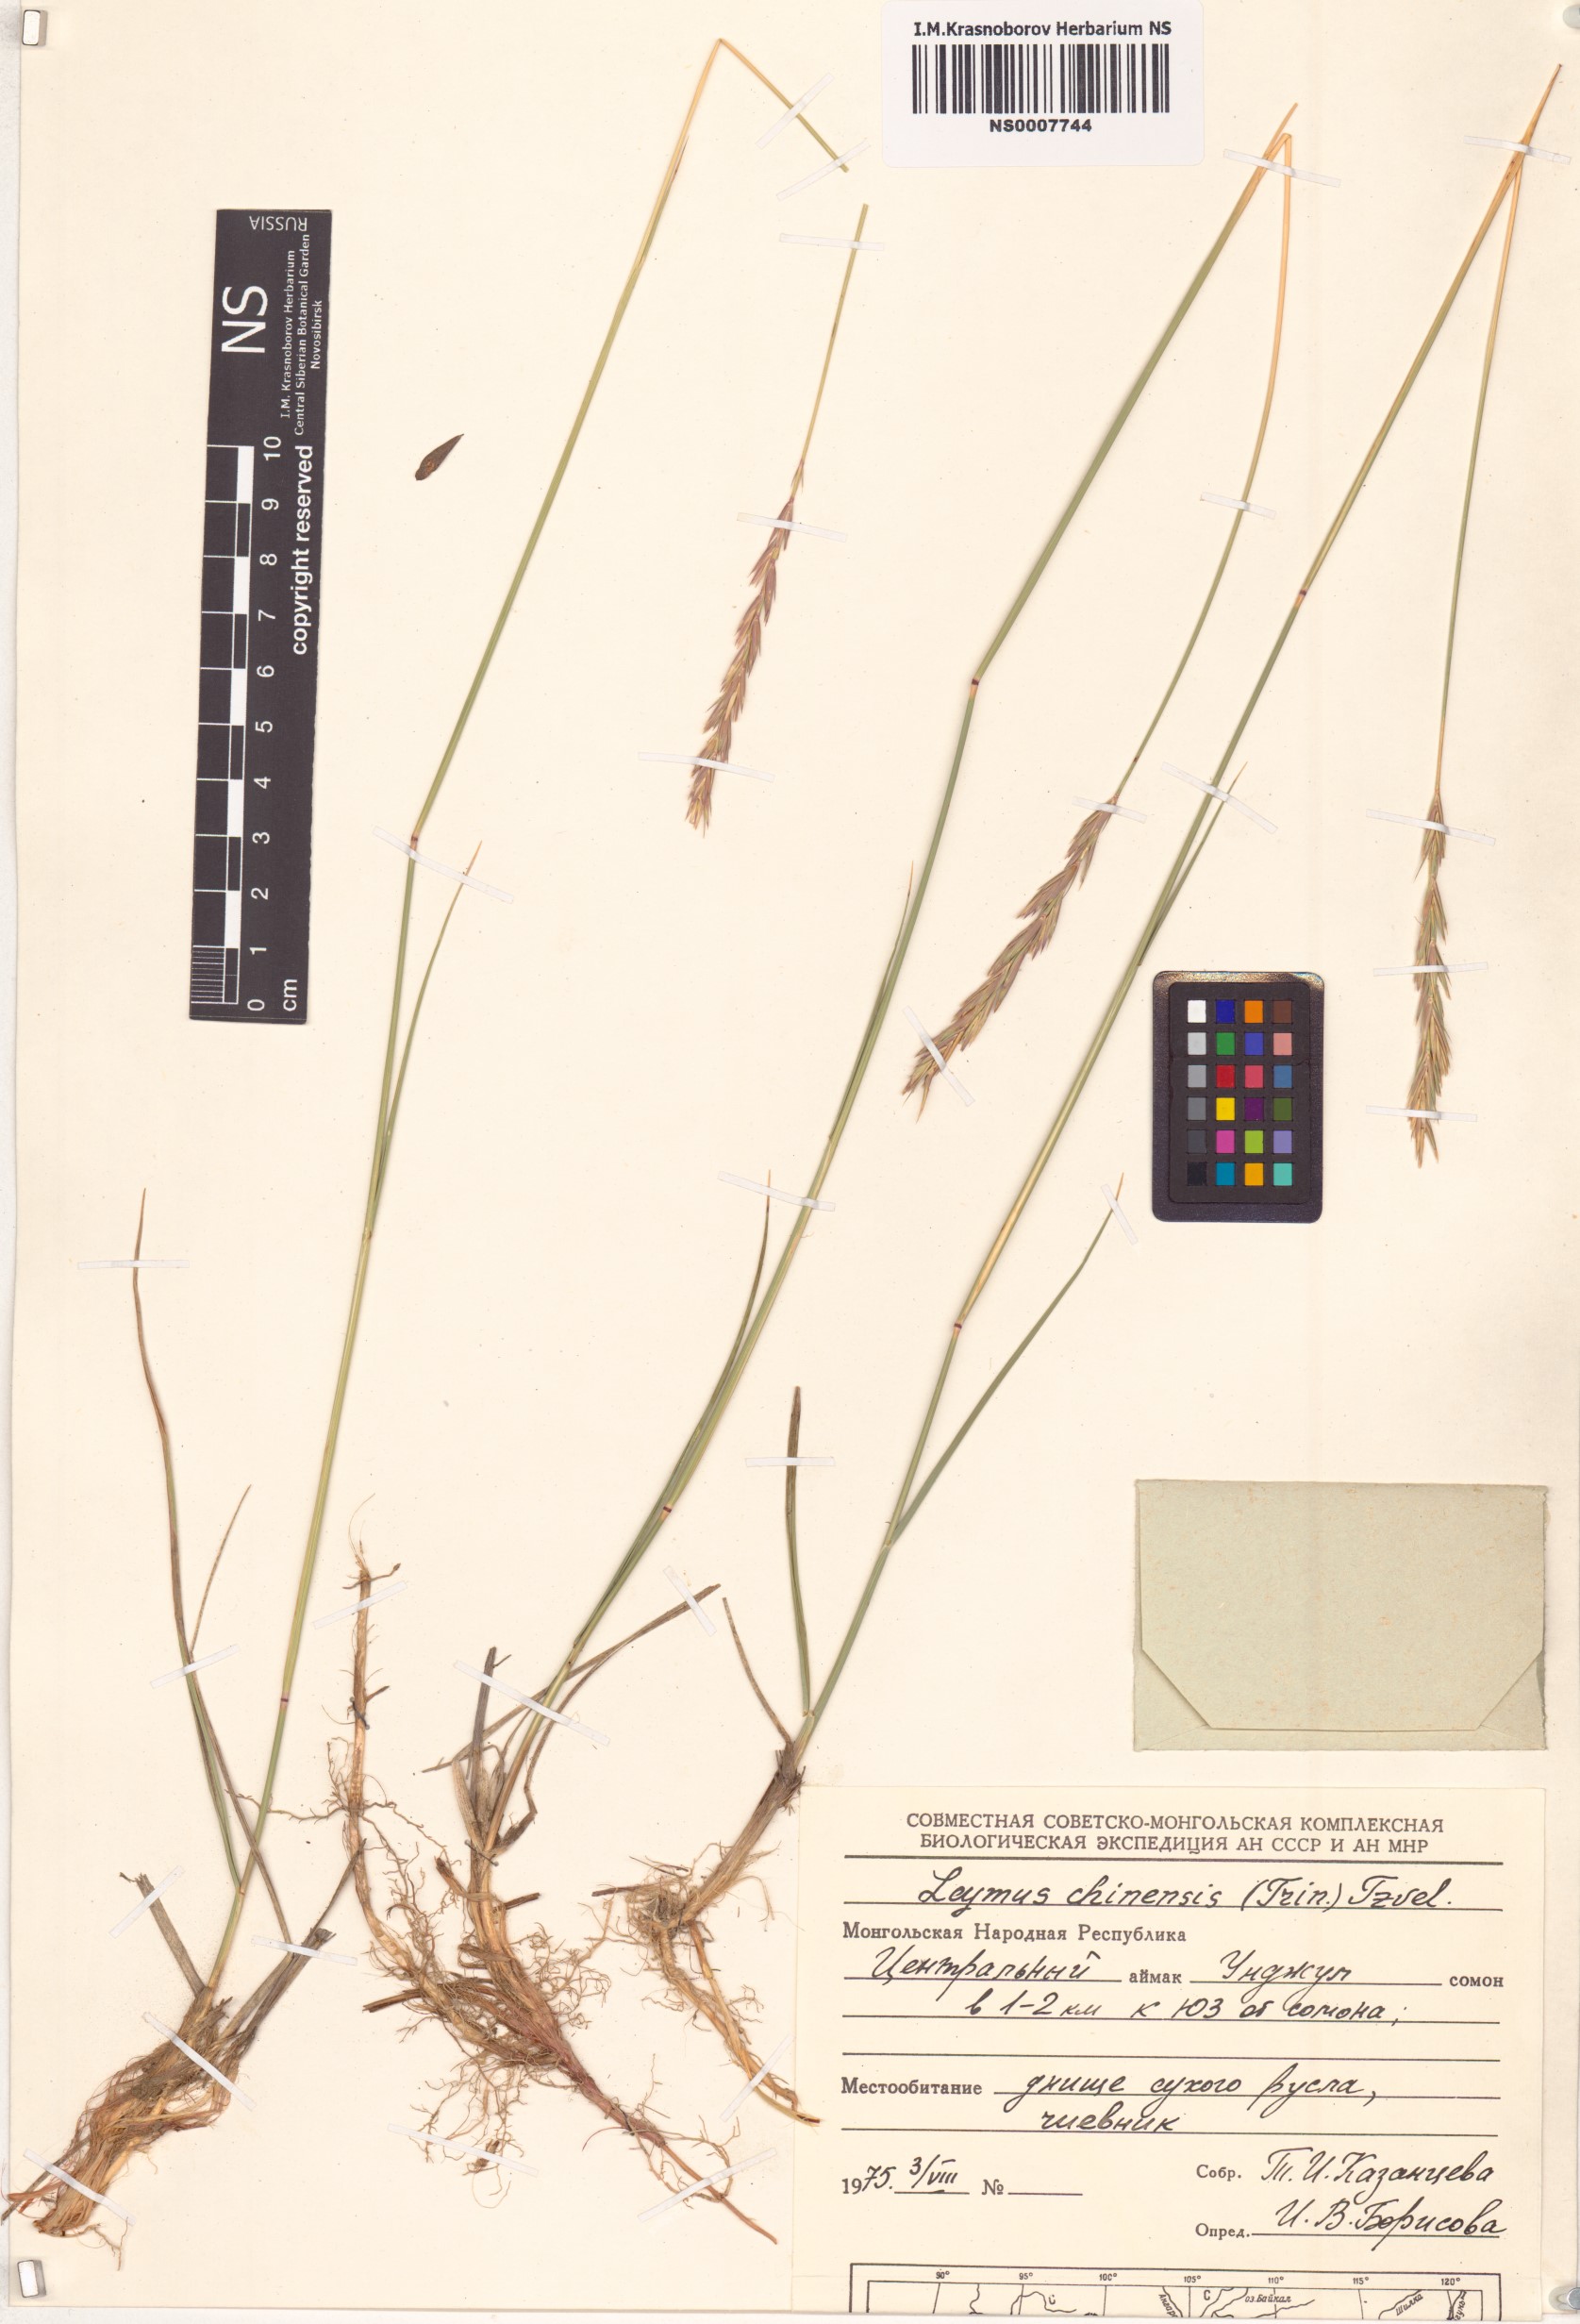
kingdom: Plantae
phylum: Tracheophyta
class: Liliopsida
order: Poales
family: Poaceae
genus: Leymus
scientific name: Leymus chinensis
